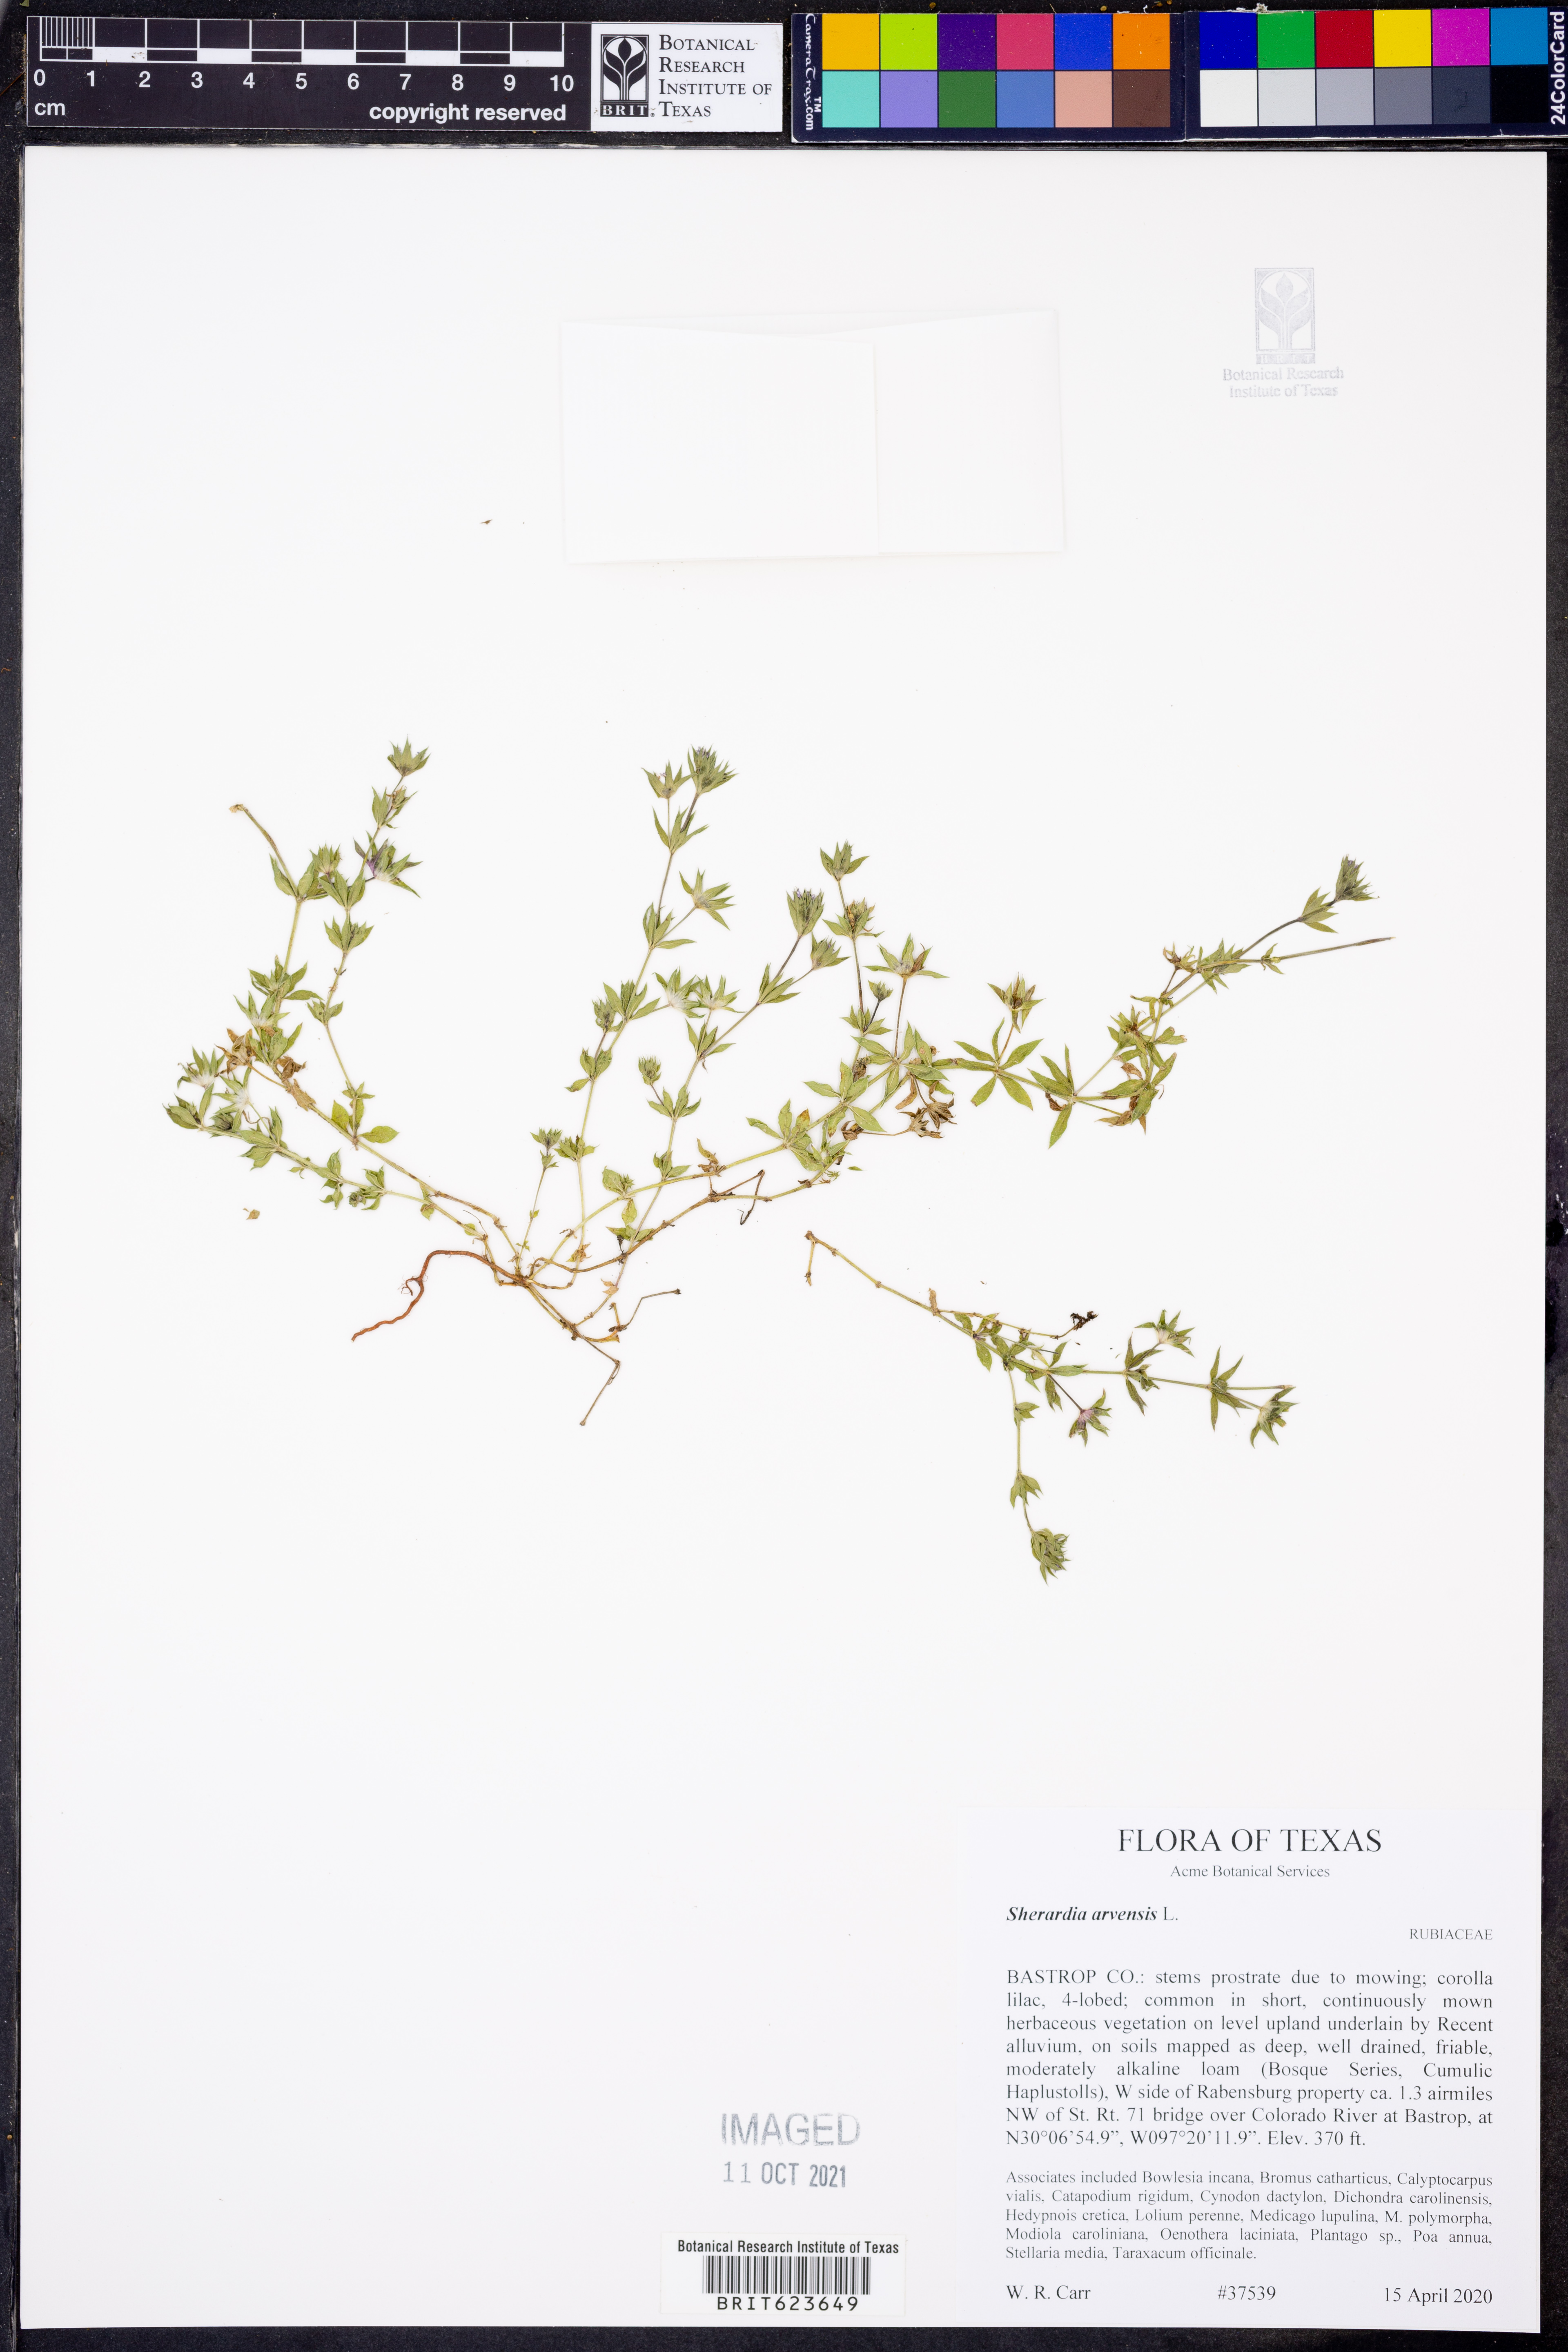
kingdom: Plantae
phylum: Tracheophyta
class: Magnoliopsida
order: Gentianales
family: Rubiaceae
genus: Sherardia
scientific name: Sherardia arvensis
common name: Field madder
